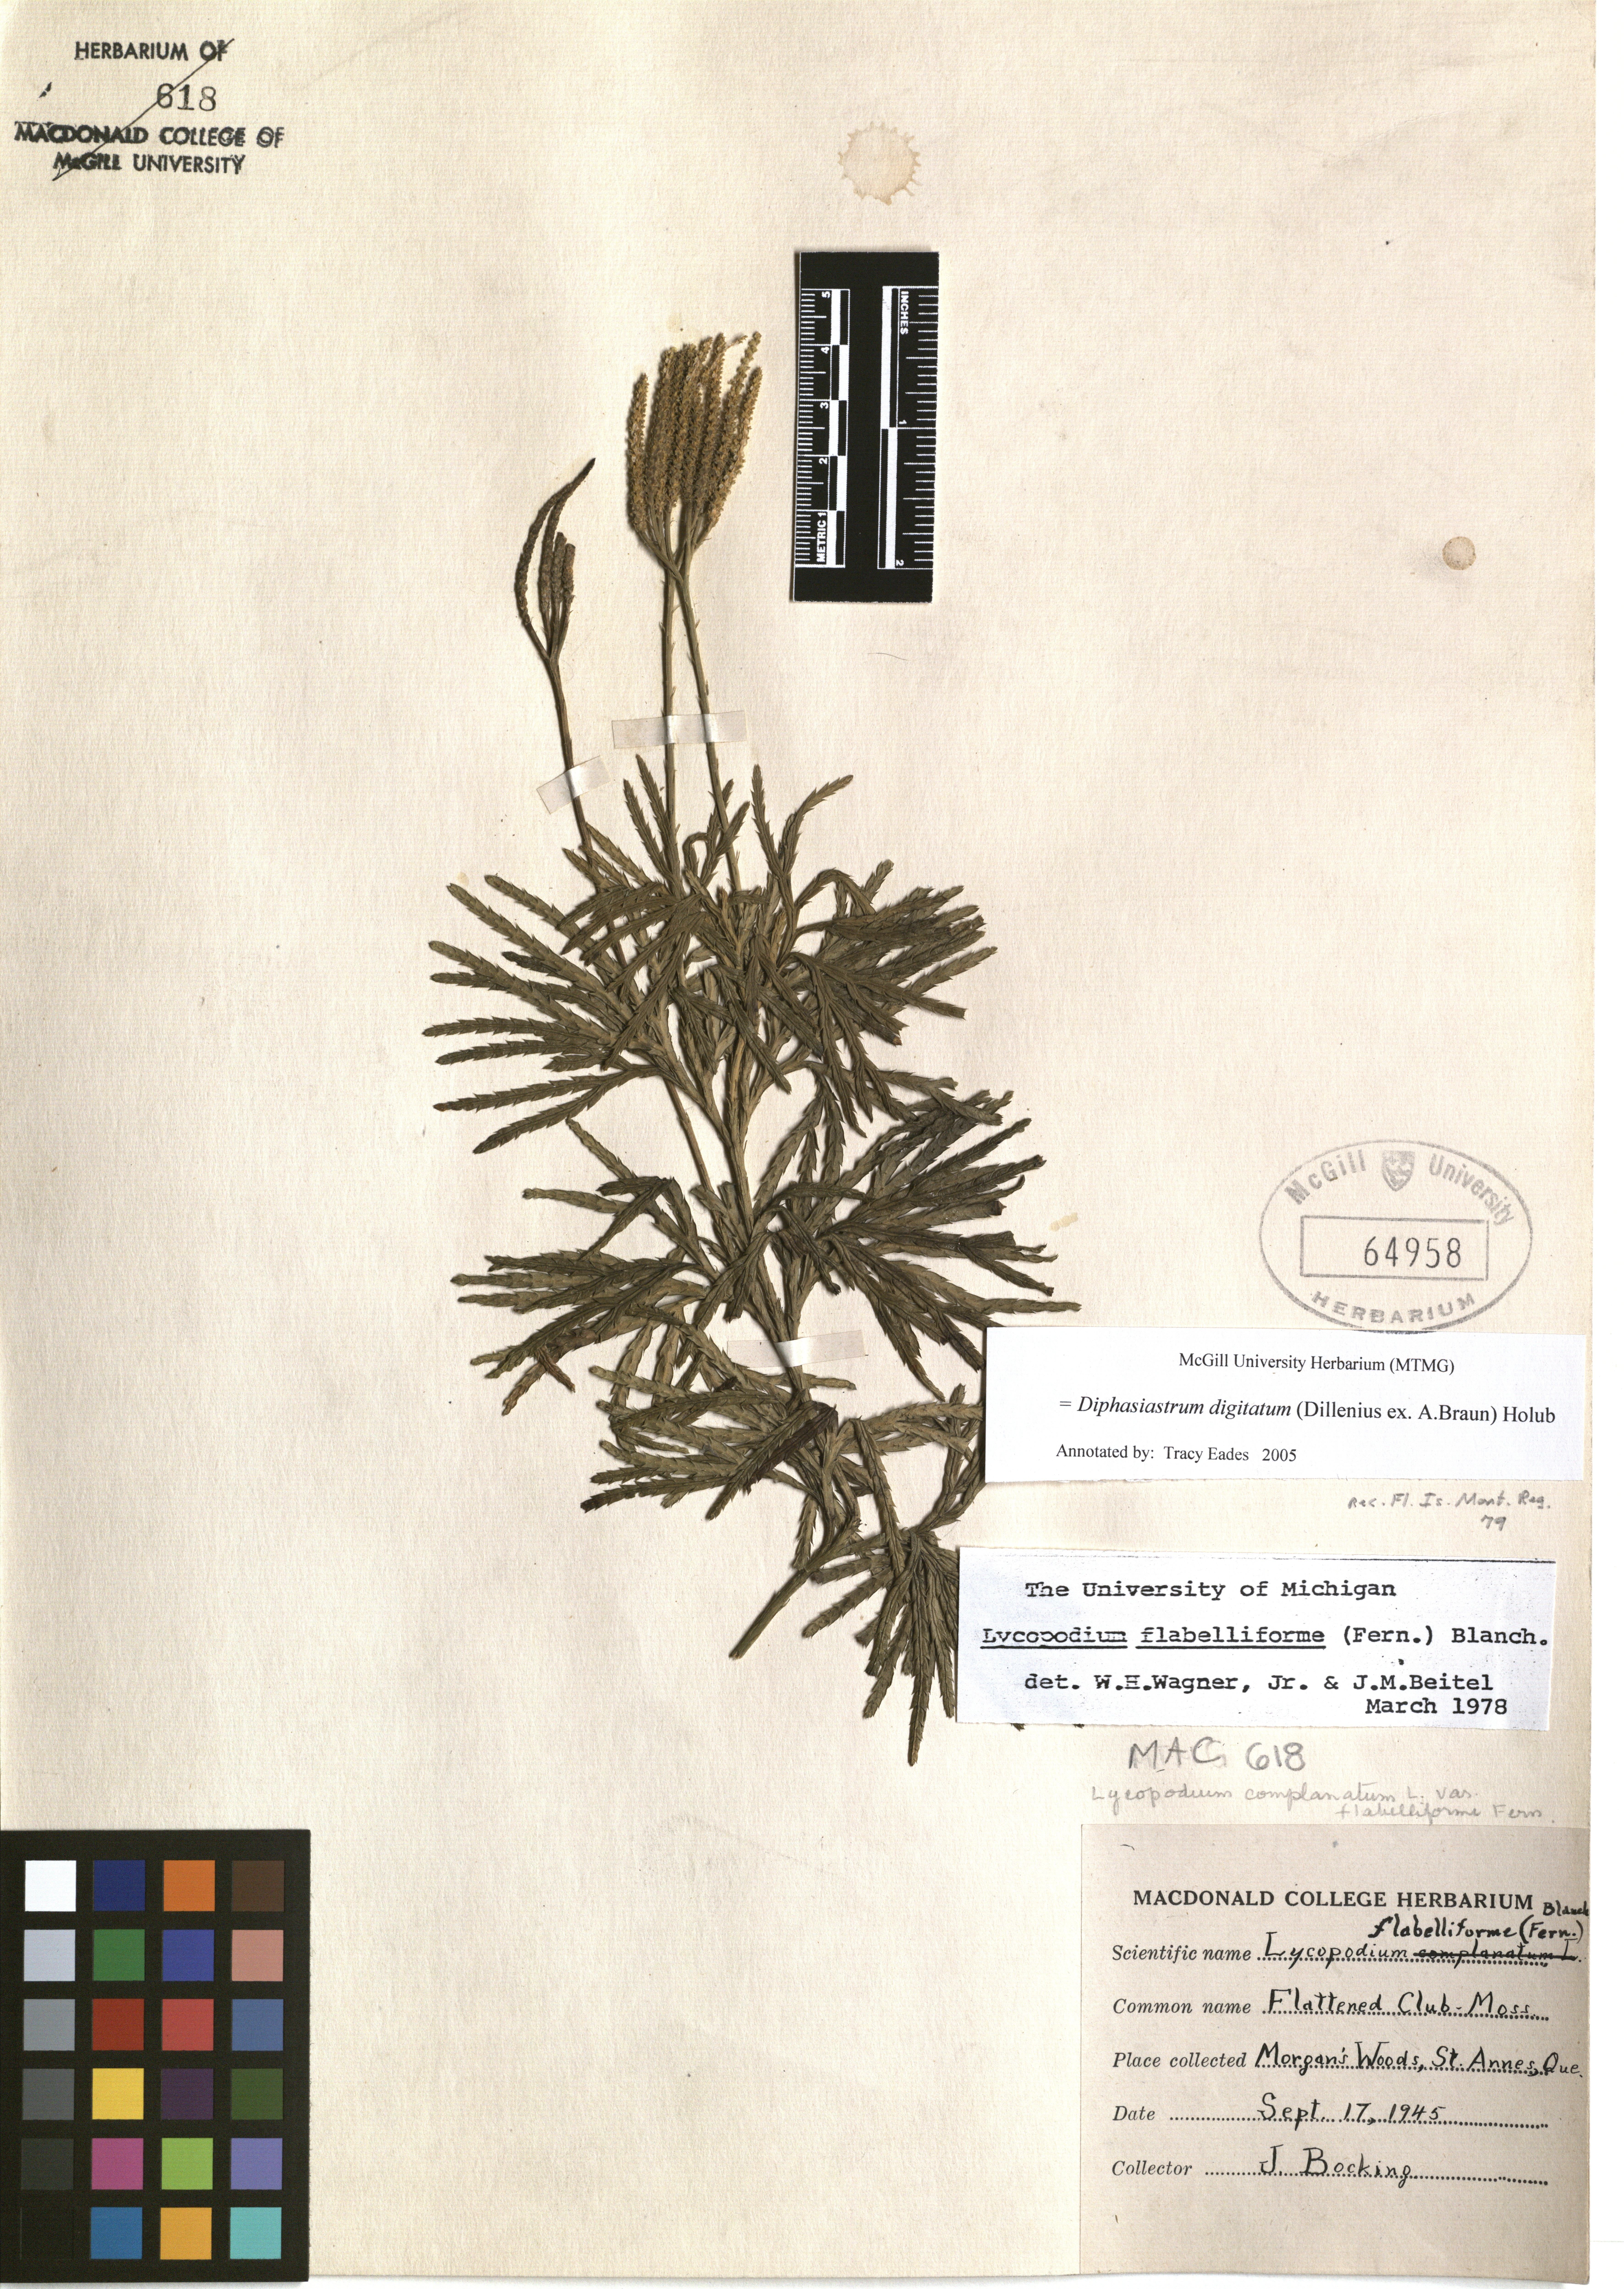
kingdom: Plantae
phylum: Tracheophyta
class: Lycopodiopsida
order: Lycopodiales
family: Lycopodiaceae
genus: Diphasiastrum
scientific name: Diphasiastrum digitatum
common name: Southern running-pine
